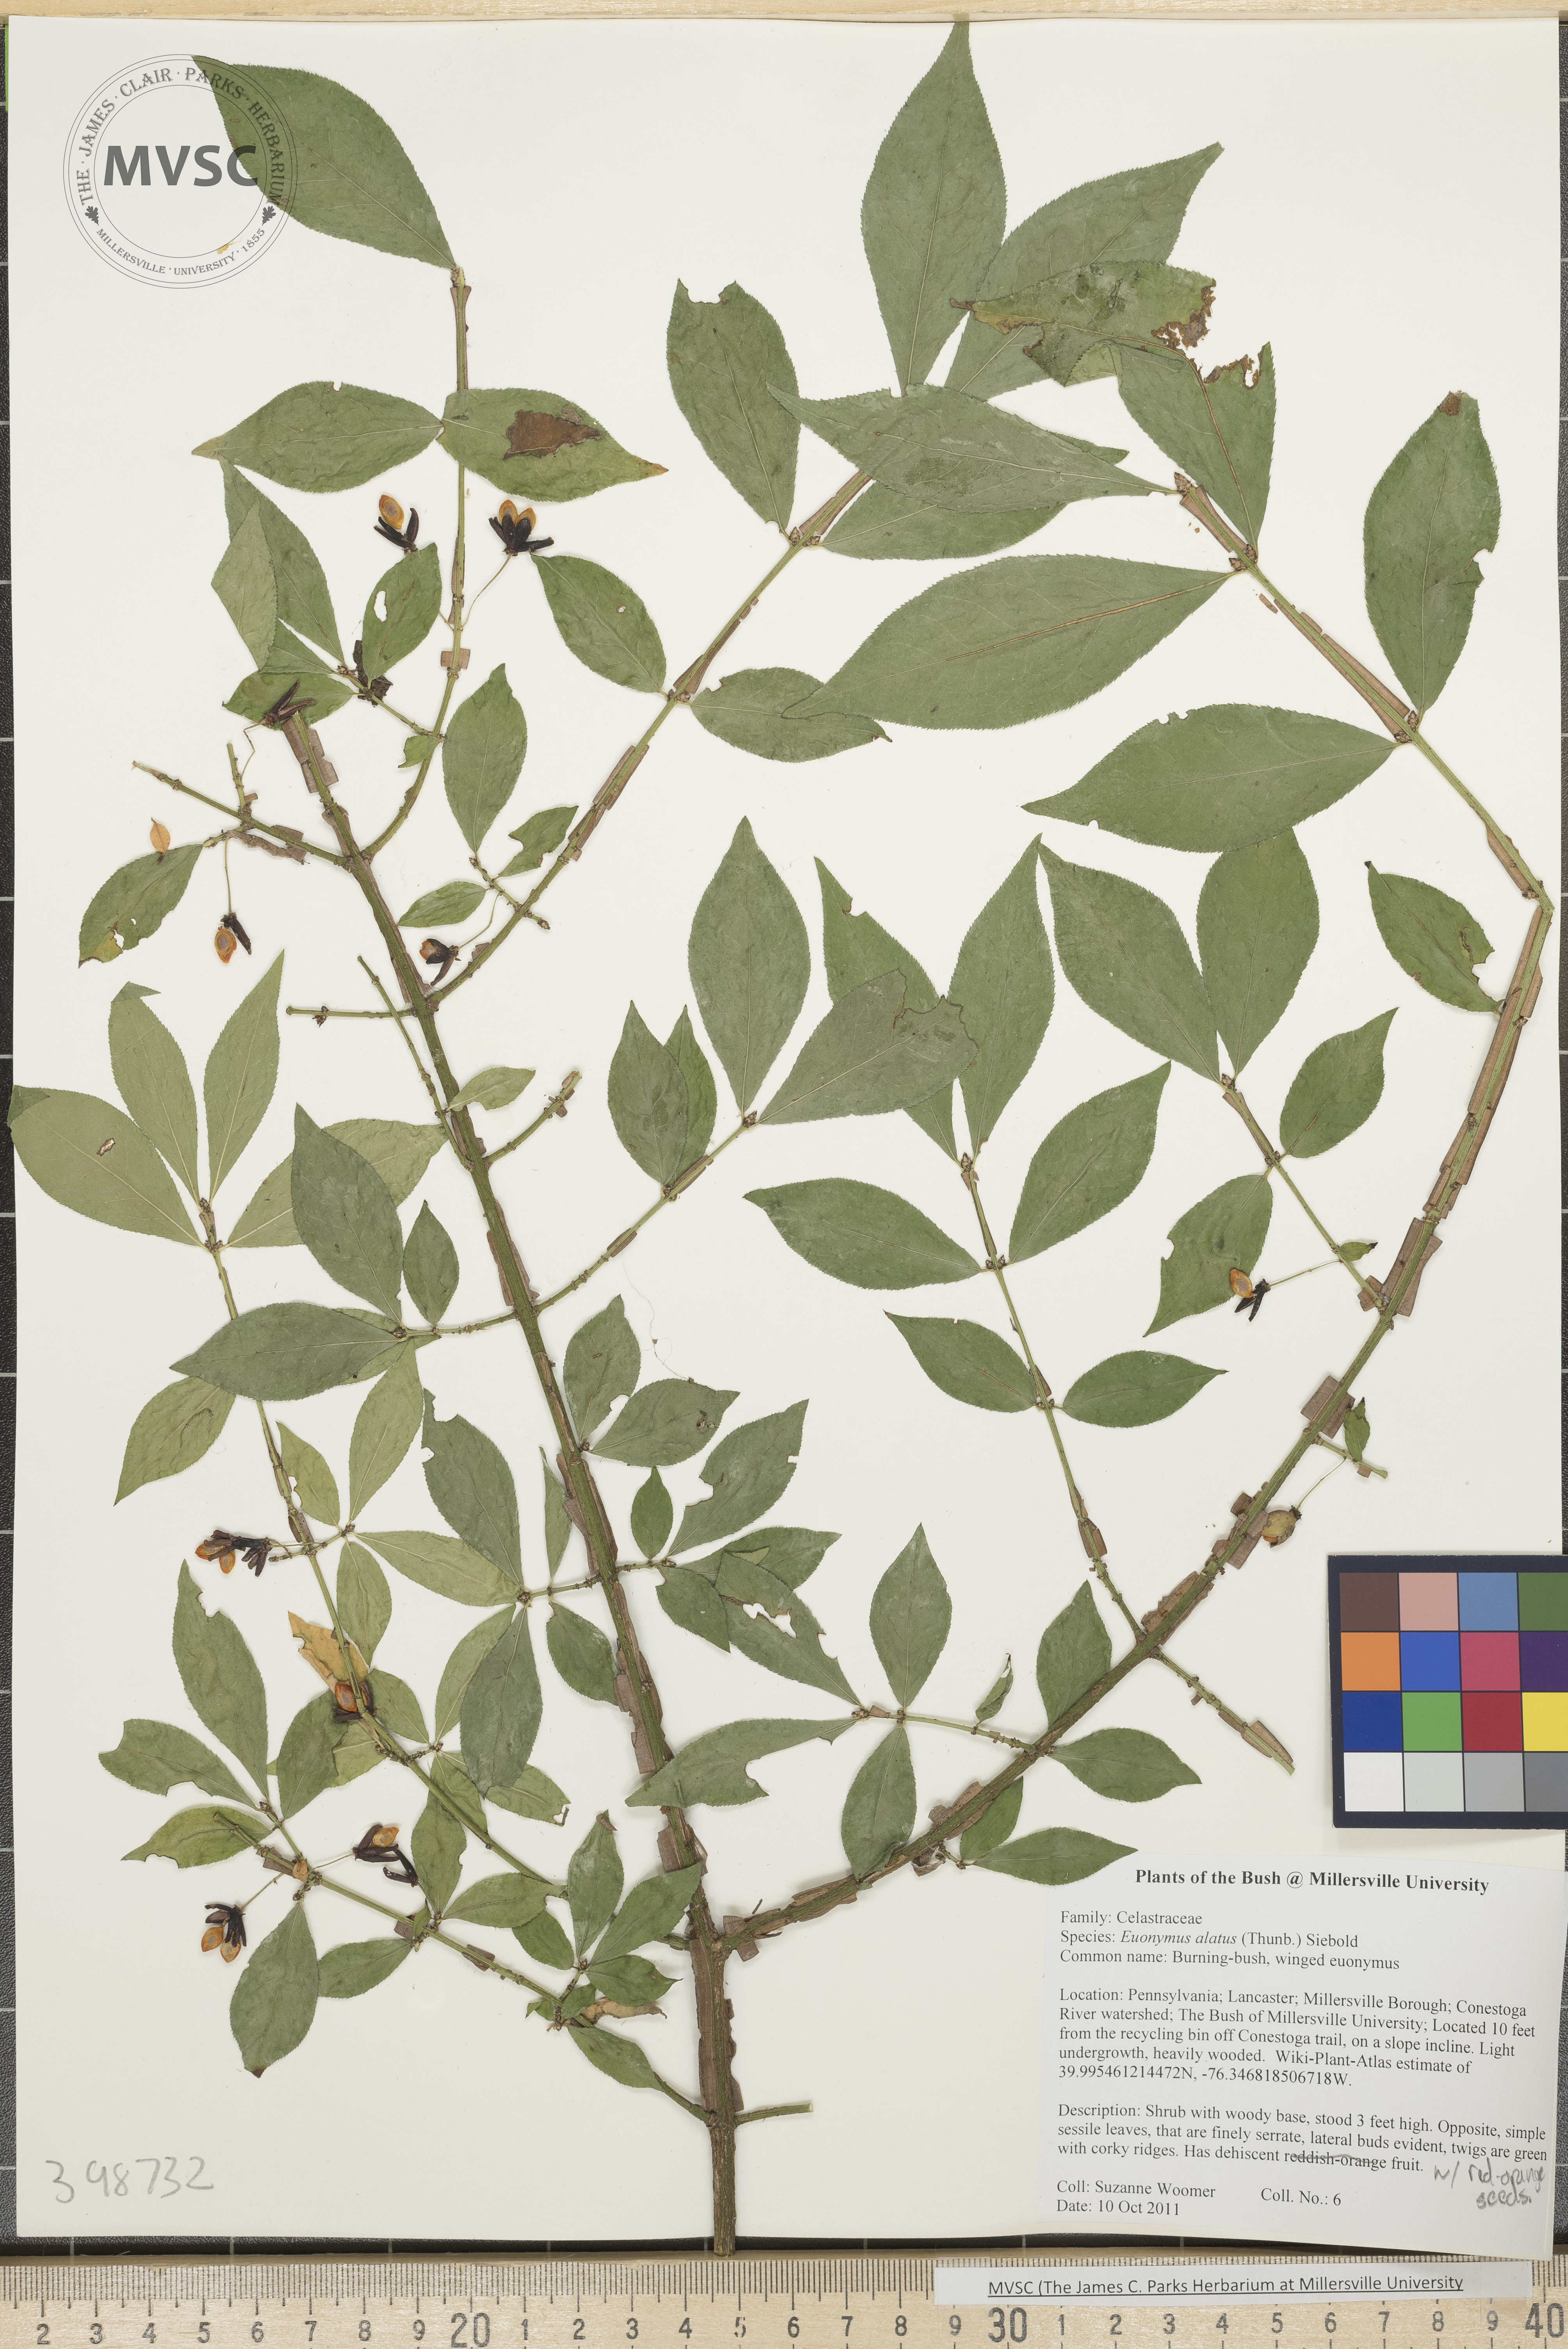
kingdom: Plantae
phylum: Tracheophyta
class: Magnoliopsida
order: Celastrales
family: Celastraceae
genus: Euonymus
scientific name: Euonymus alatus
